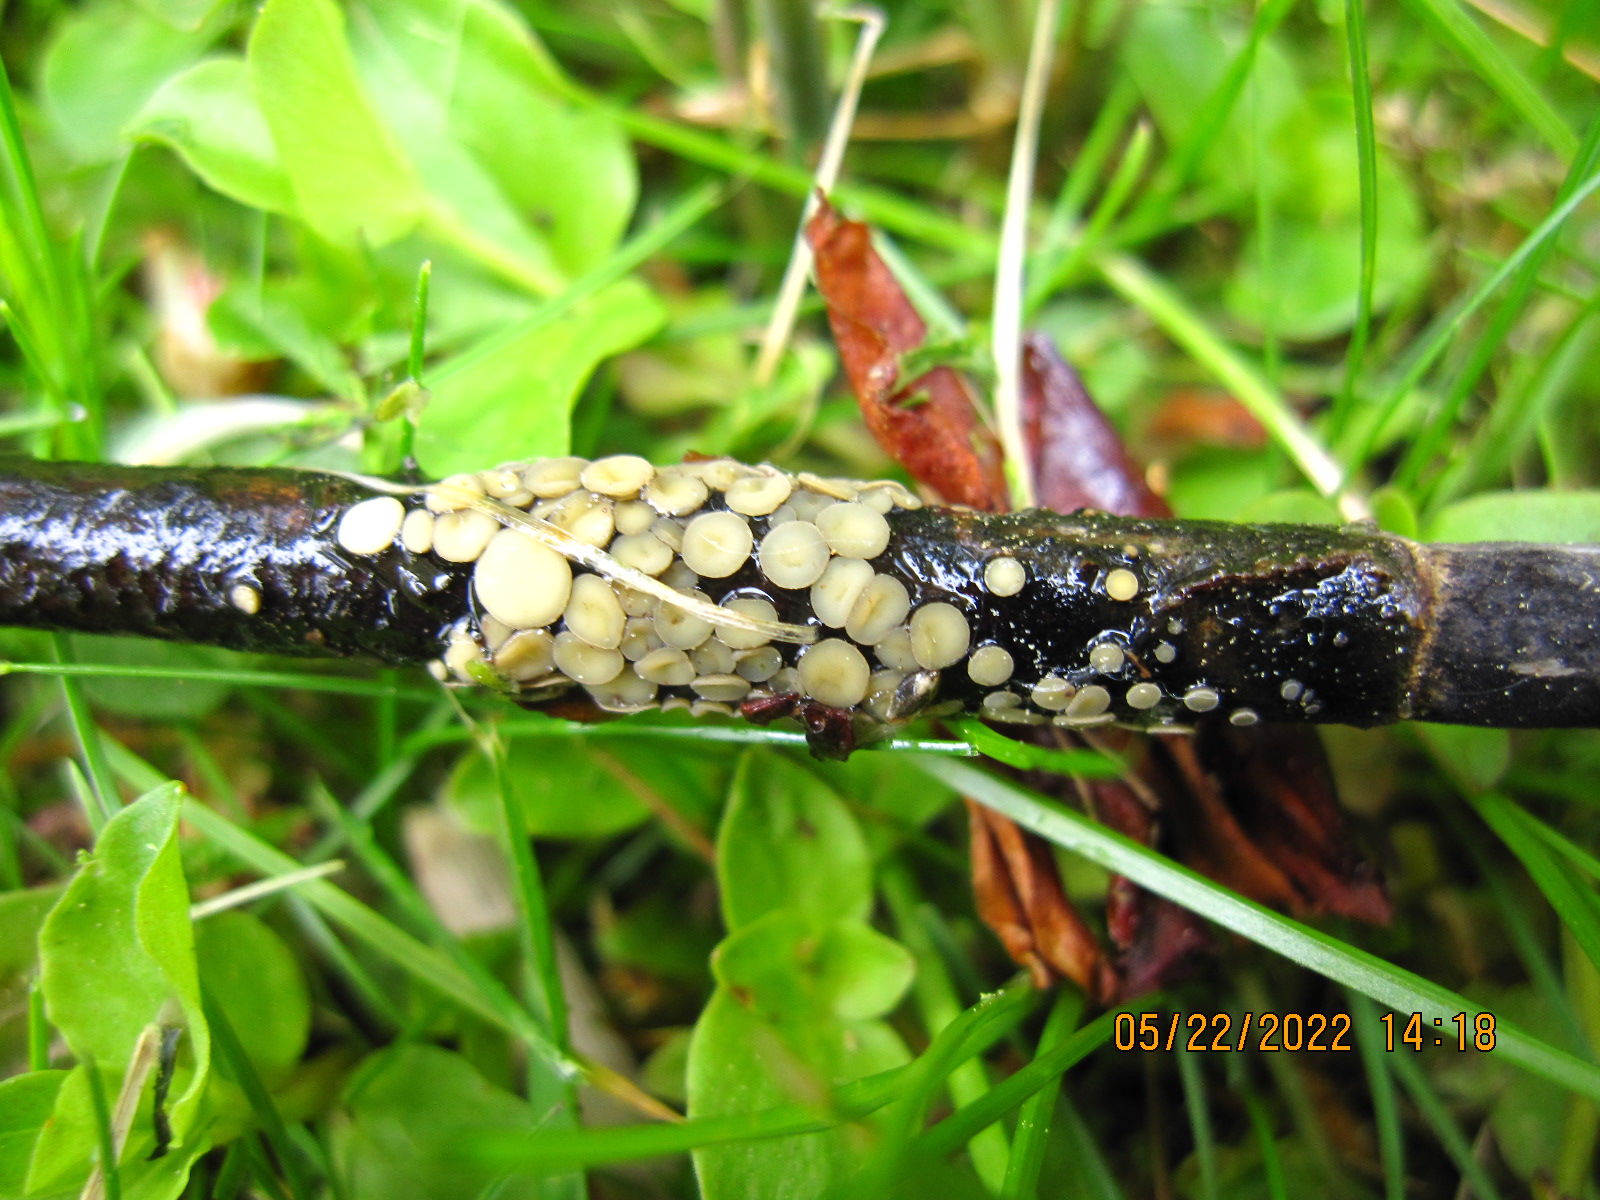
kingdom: Fungi
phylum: Ascomycota
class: Leotiomycetes
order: Helotiales
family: Mollisiaceae
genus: Trichobelonium
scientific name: Trichobelonium kneiffii
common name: tagrør-gråskive
